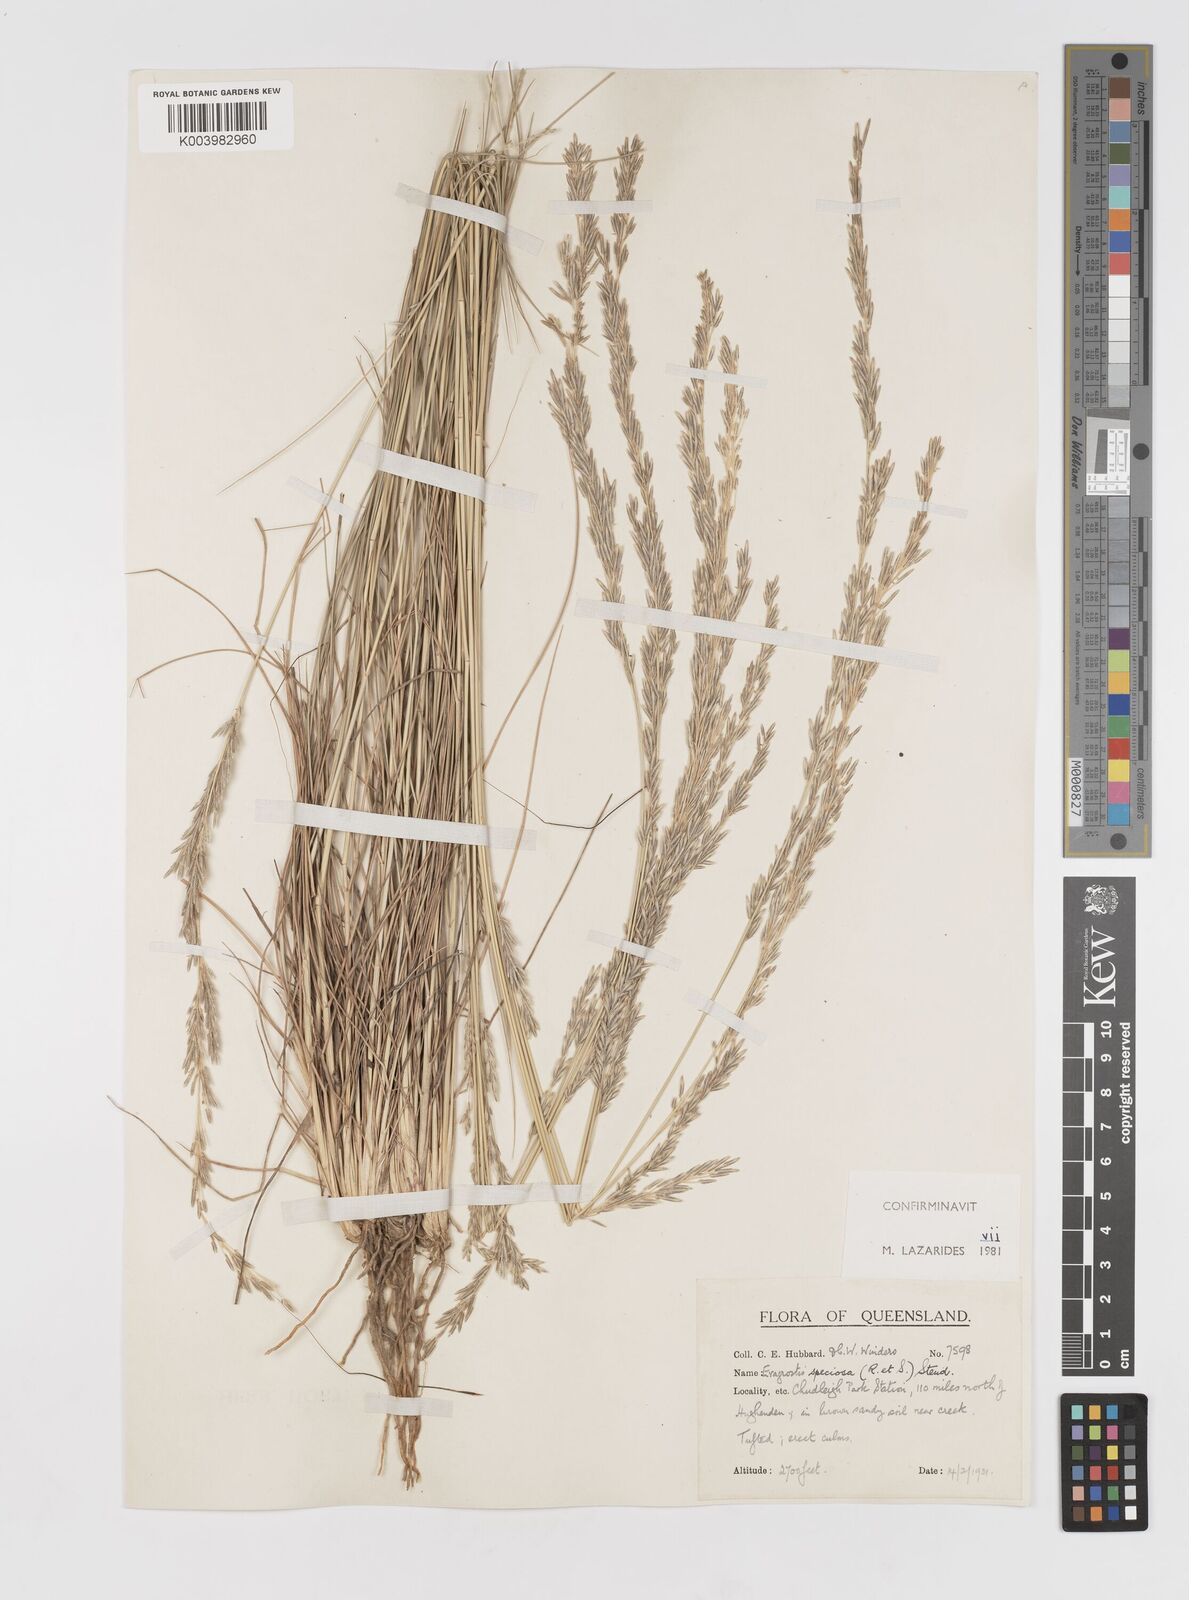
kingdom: Plantae
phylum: Tracheophyta
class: Liliopsida
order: Poales
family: Poaceae
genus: Eragrostis
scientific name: Eragrostis speciosa
